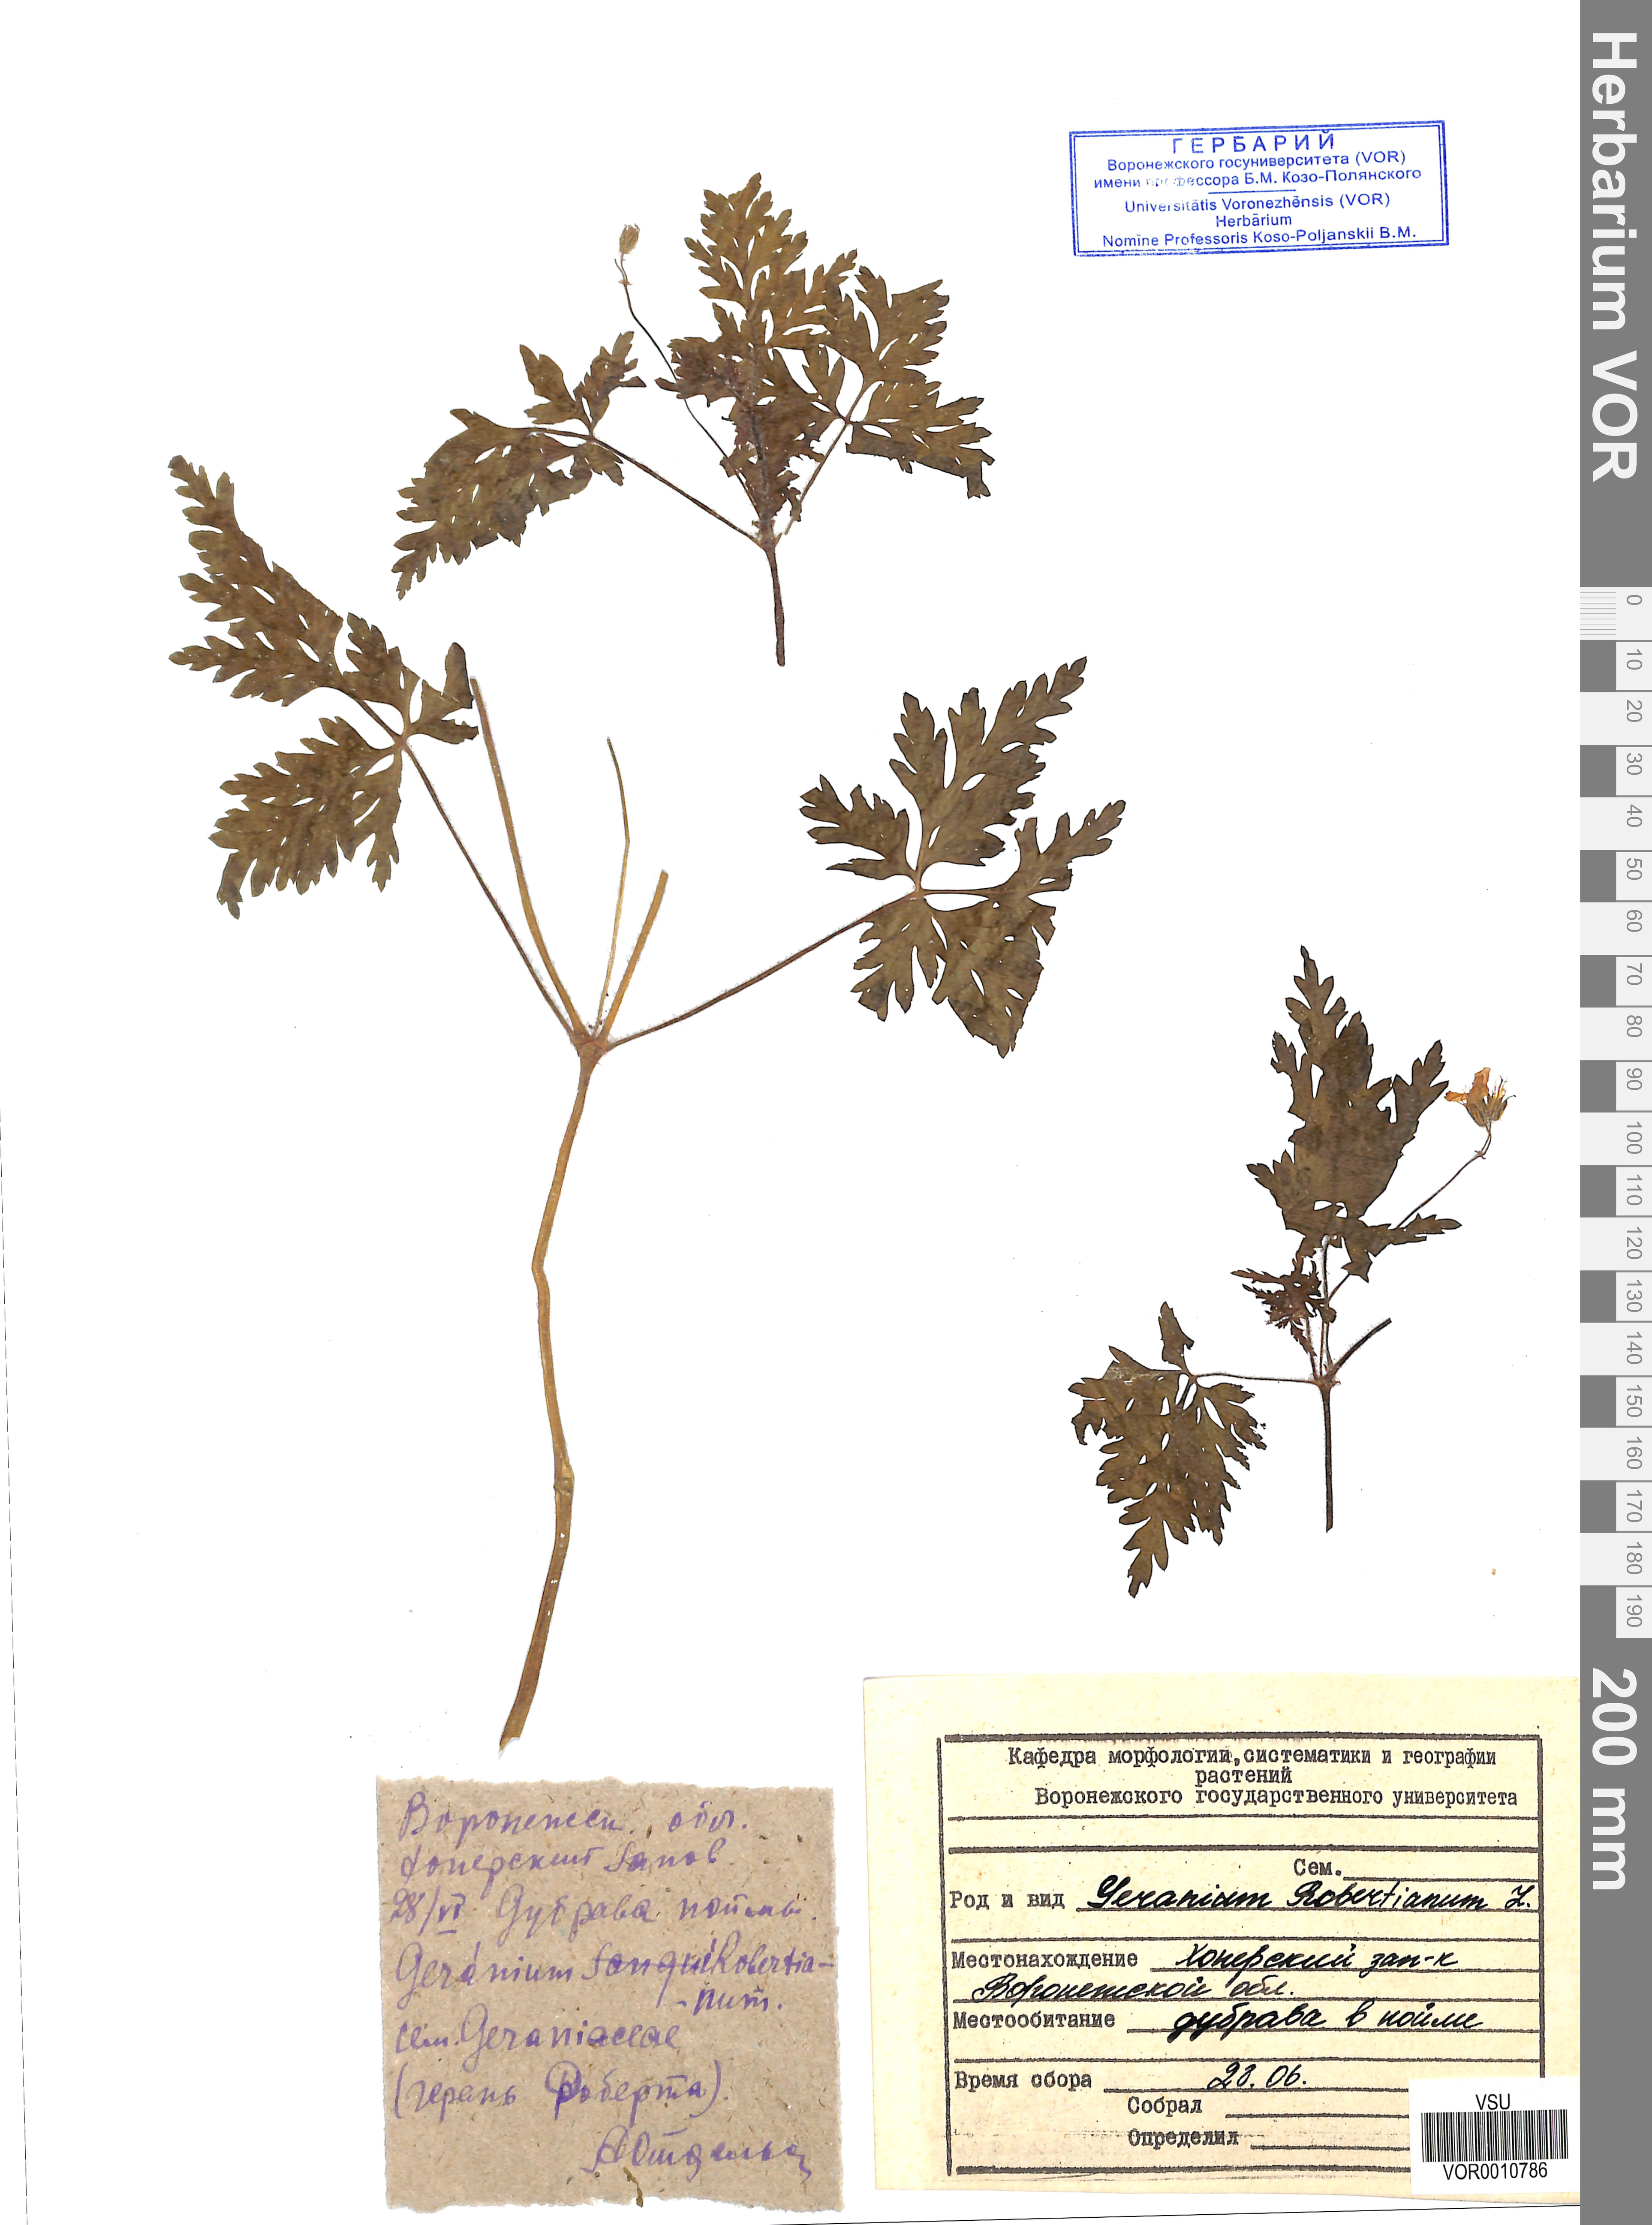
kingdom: Plantae
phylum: Tracheophyta
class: Magnoliopsida
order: Geraniales
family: Geraniaceae
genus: Geranium
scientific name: Geranium robertianum
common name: Herb-robert
